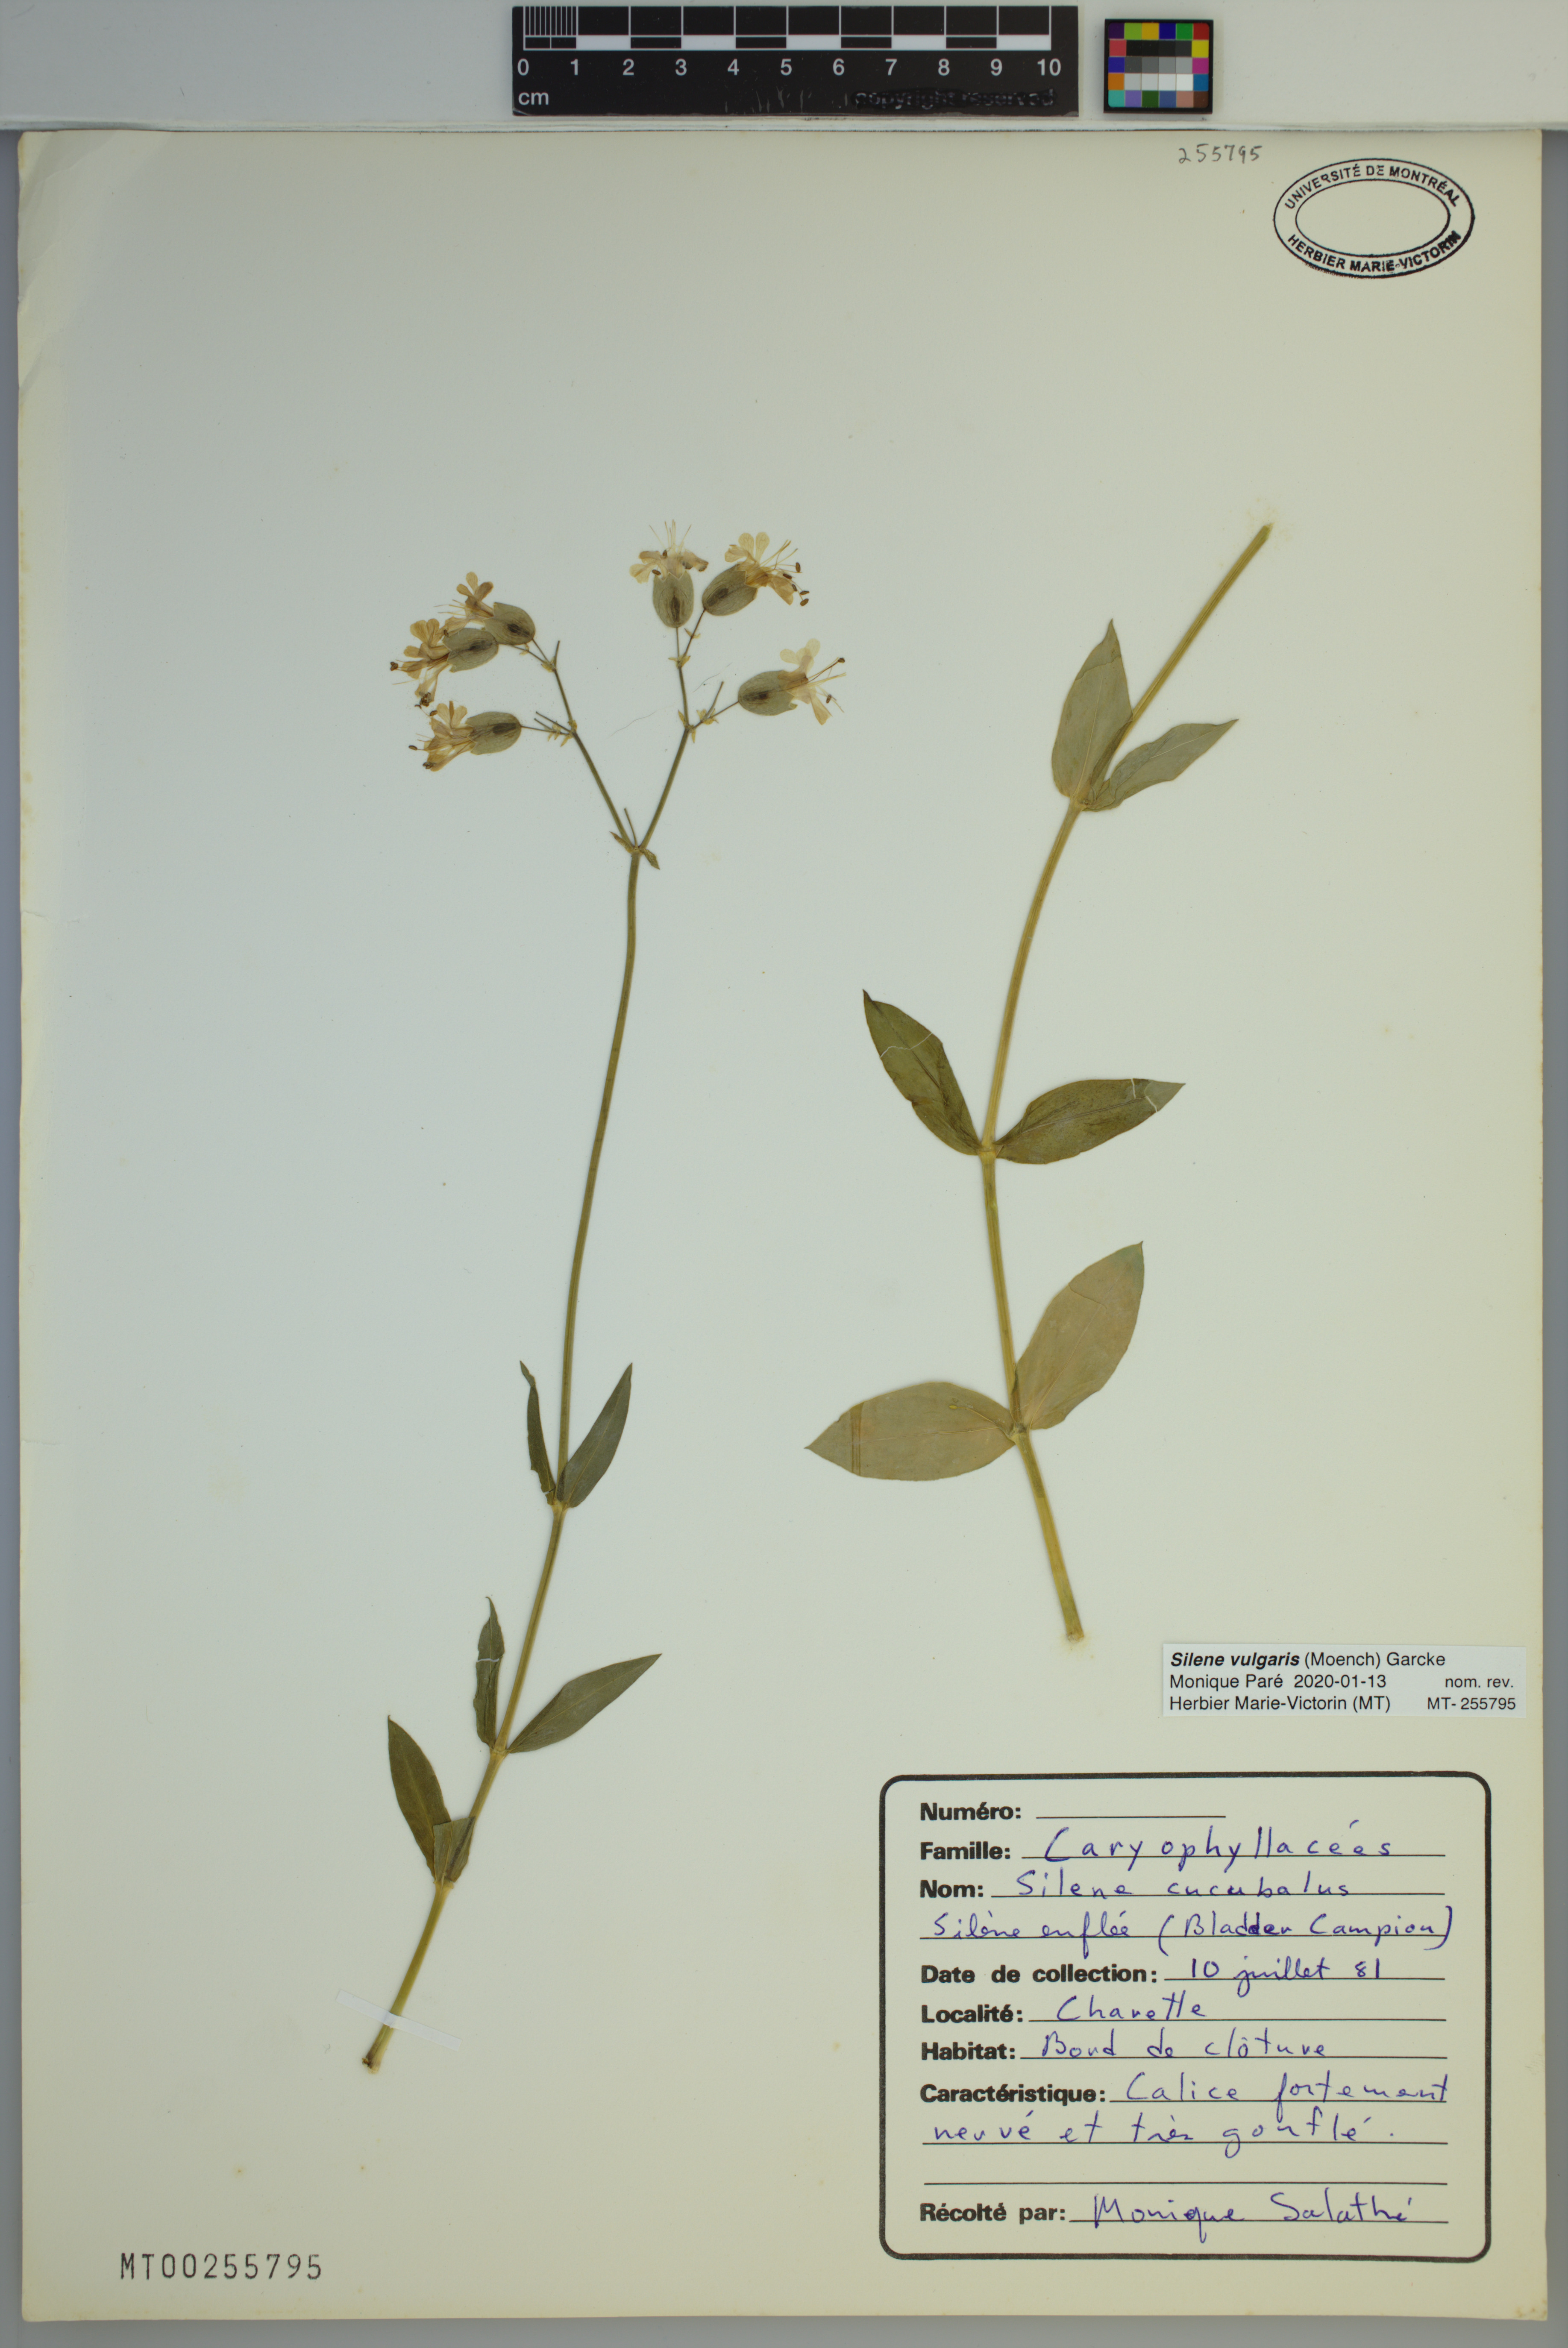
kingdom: Plantae
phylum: Tracheophyta
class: Magnoliopsida
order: Caryophyllales
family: Caryophyllaceae
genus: Silene
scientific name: Silene vulgaris
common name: Bladder campion
